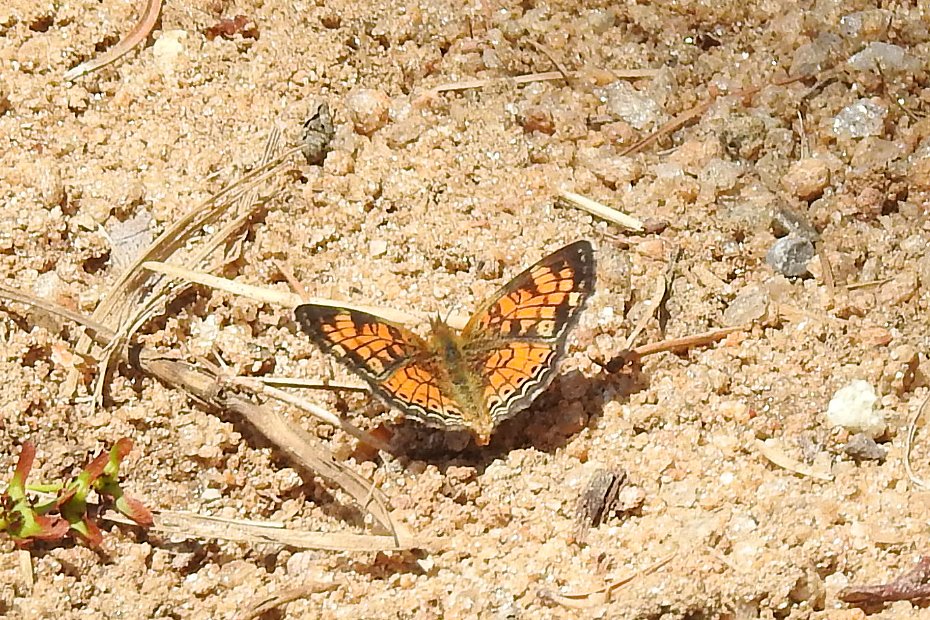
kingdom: Animalia
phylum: Arthropoda
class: Insecta
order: Lepidoptera
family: Nymphalidae
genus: Phyciodes
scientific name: Phyciodes tharos
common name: Pearl Crescent
